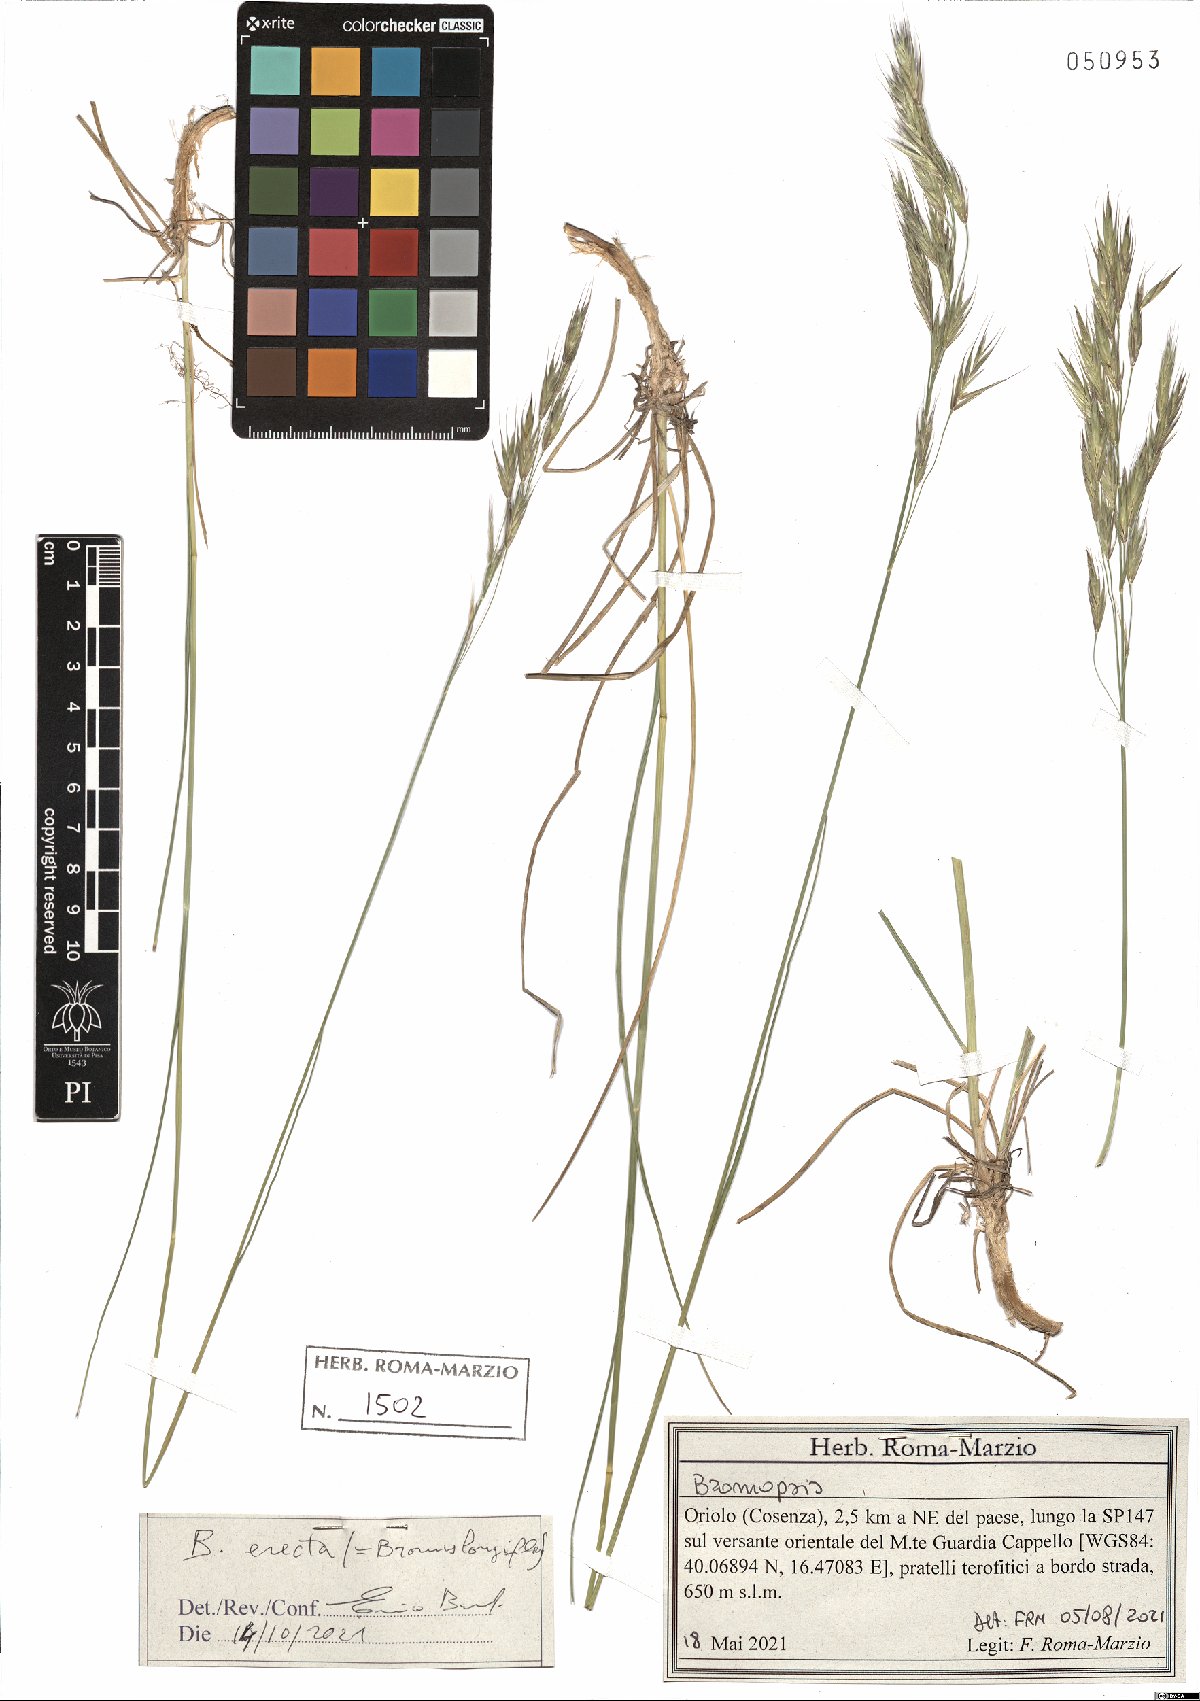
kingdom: Plantae
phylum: Tracheophyta
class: Liliopsida
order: Poales
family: Poaceae
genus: Bromus
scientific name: Bromus erectus
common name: Erect brome
